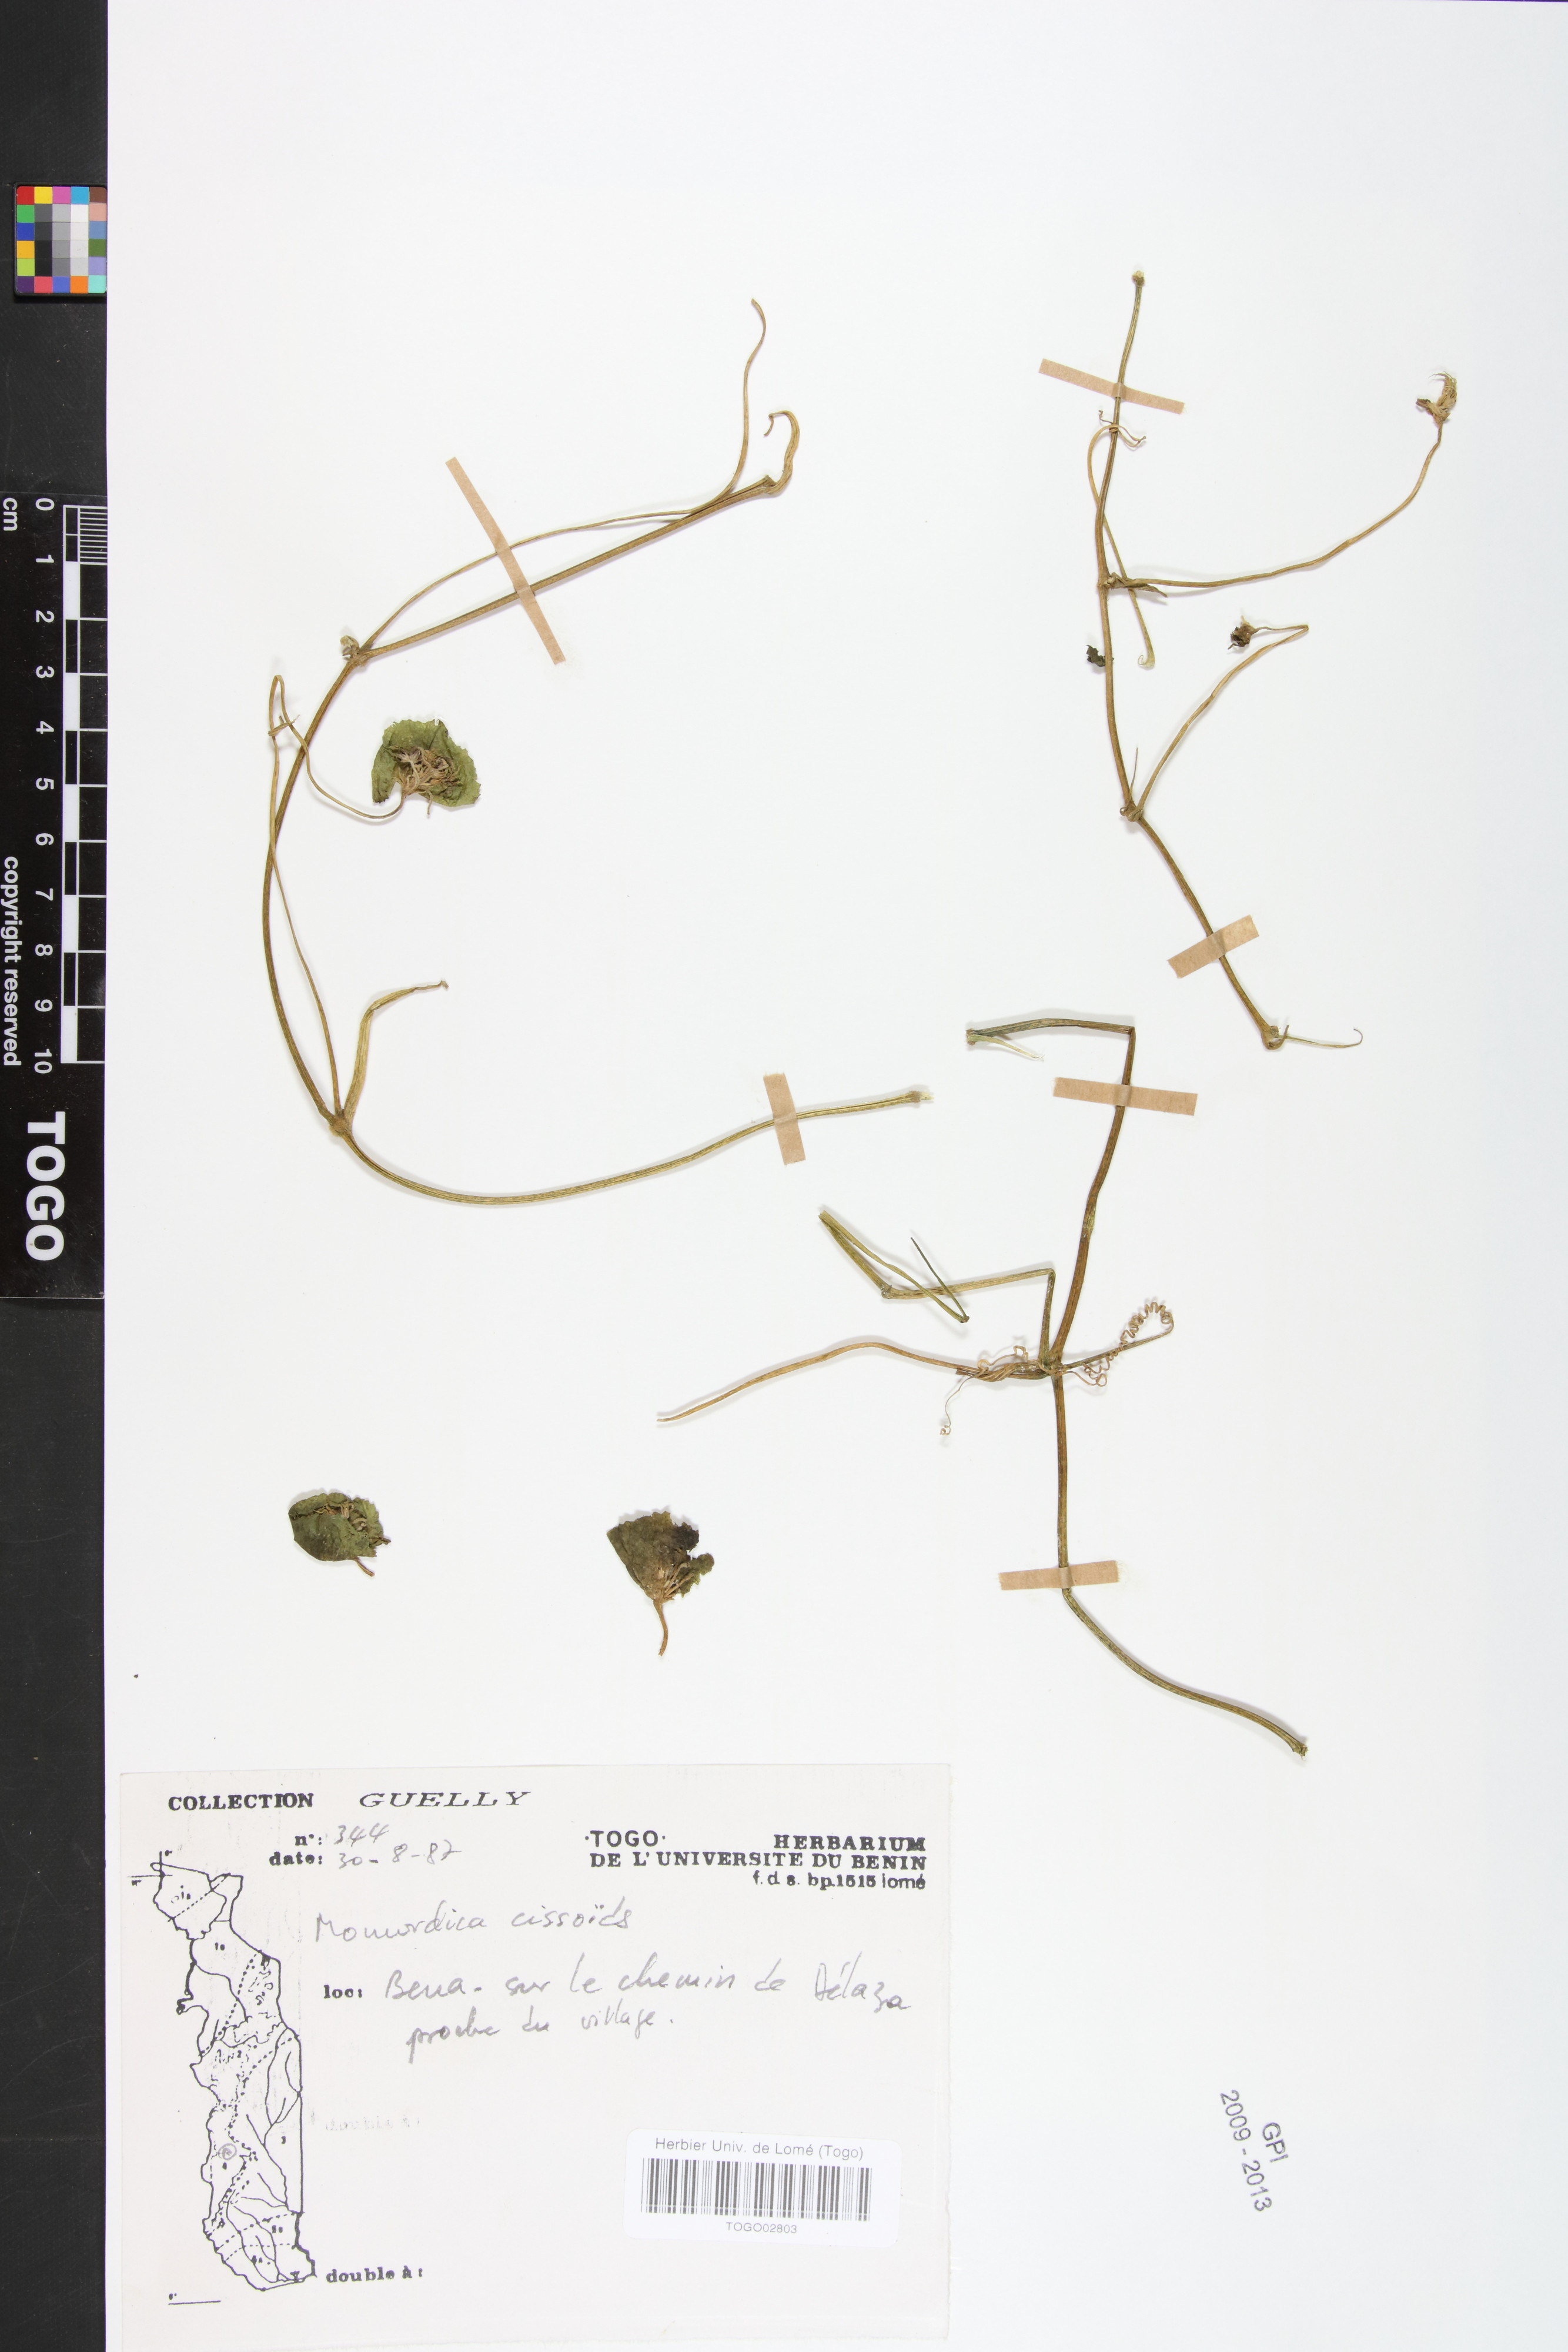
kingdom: Plantae
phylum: Tracheophyta
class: Magnoliopsida
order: Cucurbitales
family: Cucurbitaceae
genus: Momordica
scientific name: Momordica cissoides
